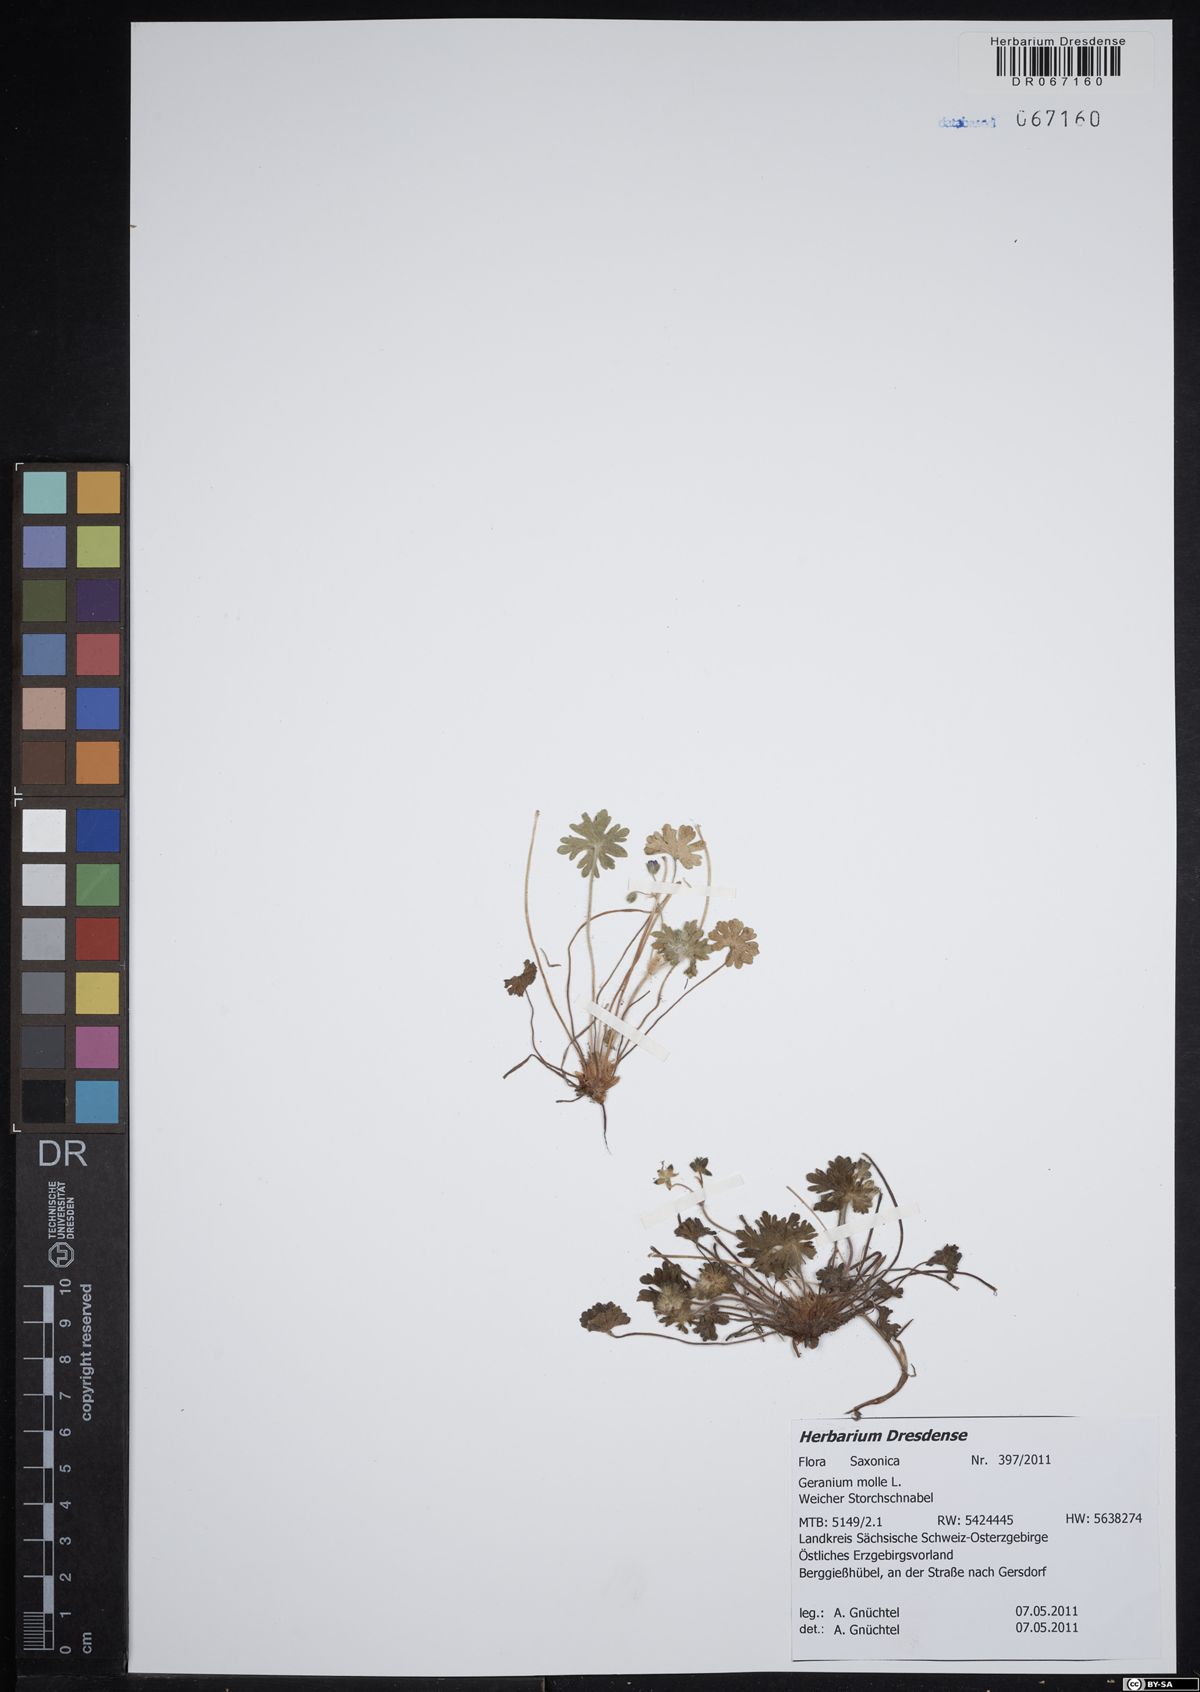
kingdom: Plantae
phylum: Tracheophyta
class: Magnoliopsida
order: Geraniales
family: Geraniaceae
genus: Geranium
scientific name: Geranium molle
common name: Dove's-foot crane's-bill
